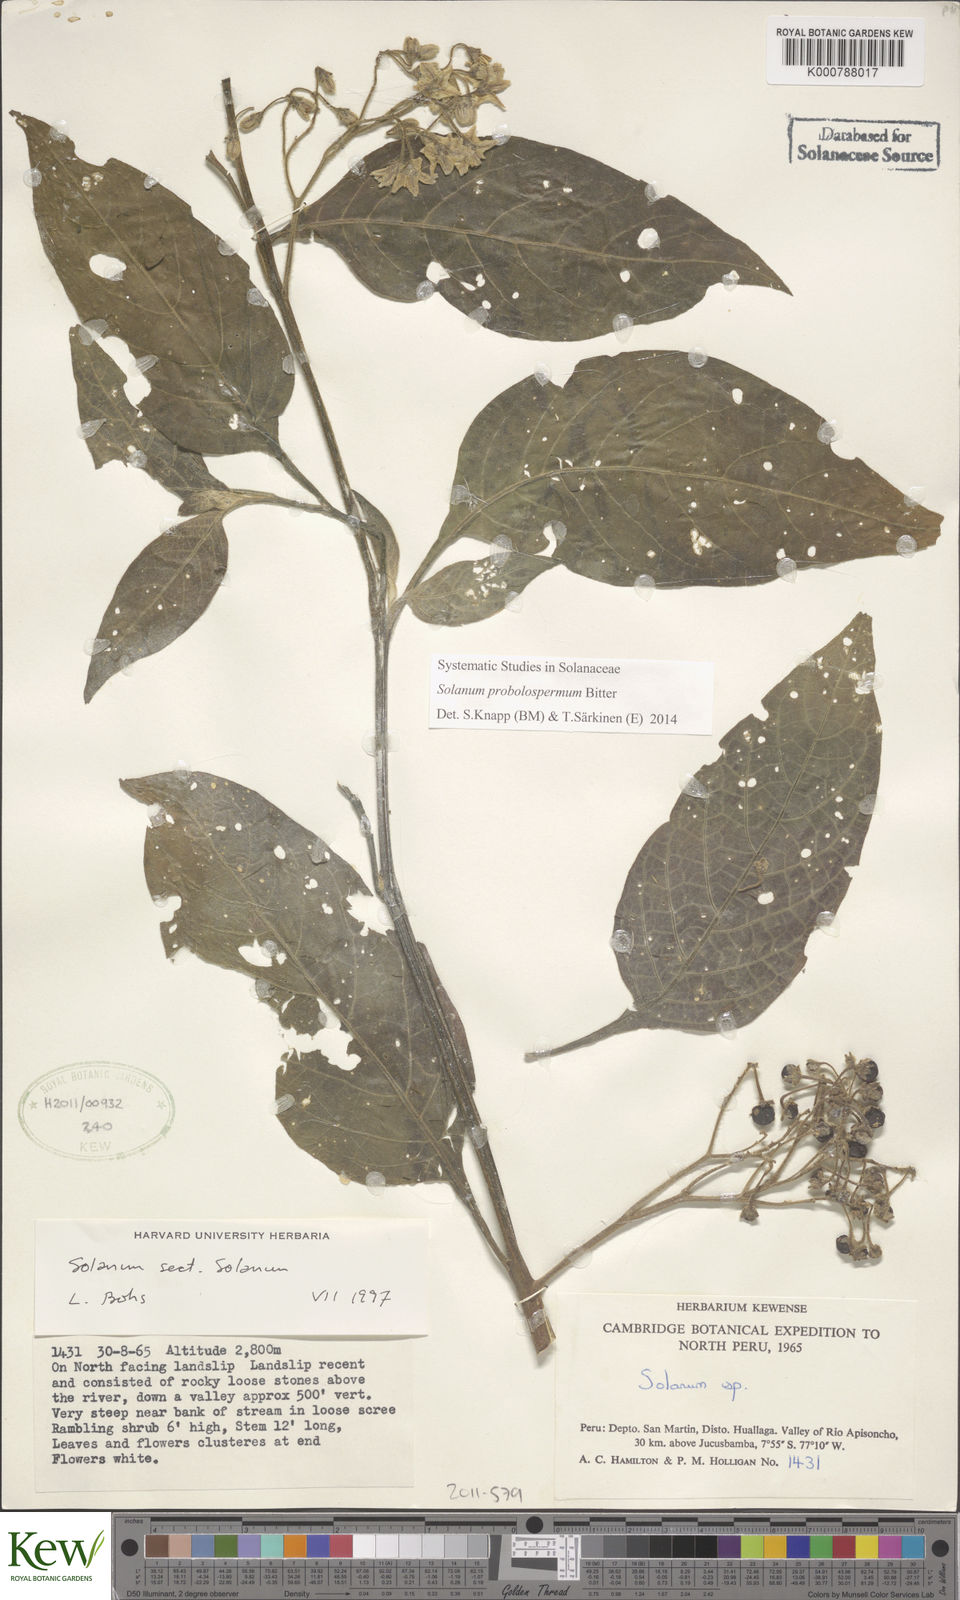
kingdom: Plantae
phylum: Tracheophyta
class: Magnoliopsida
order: Solanales
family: Solanaceae
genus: Solanum
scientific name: Solanum probolospermum
